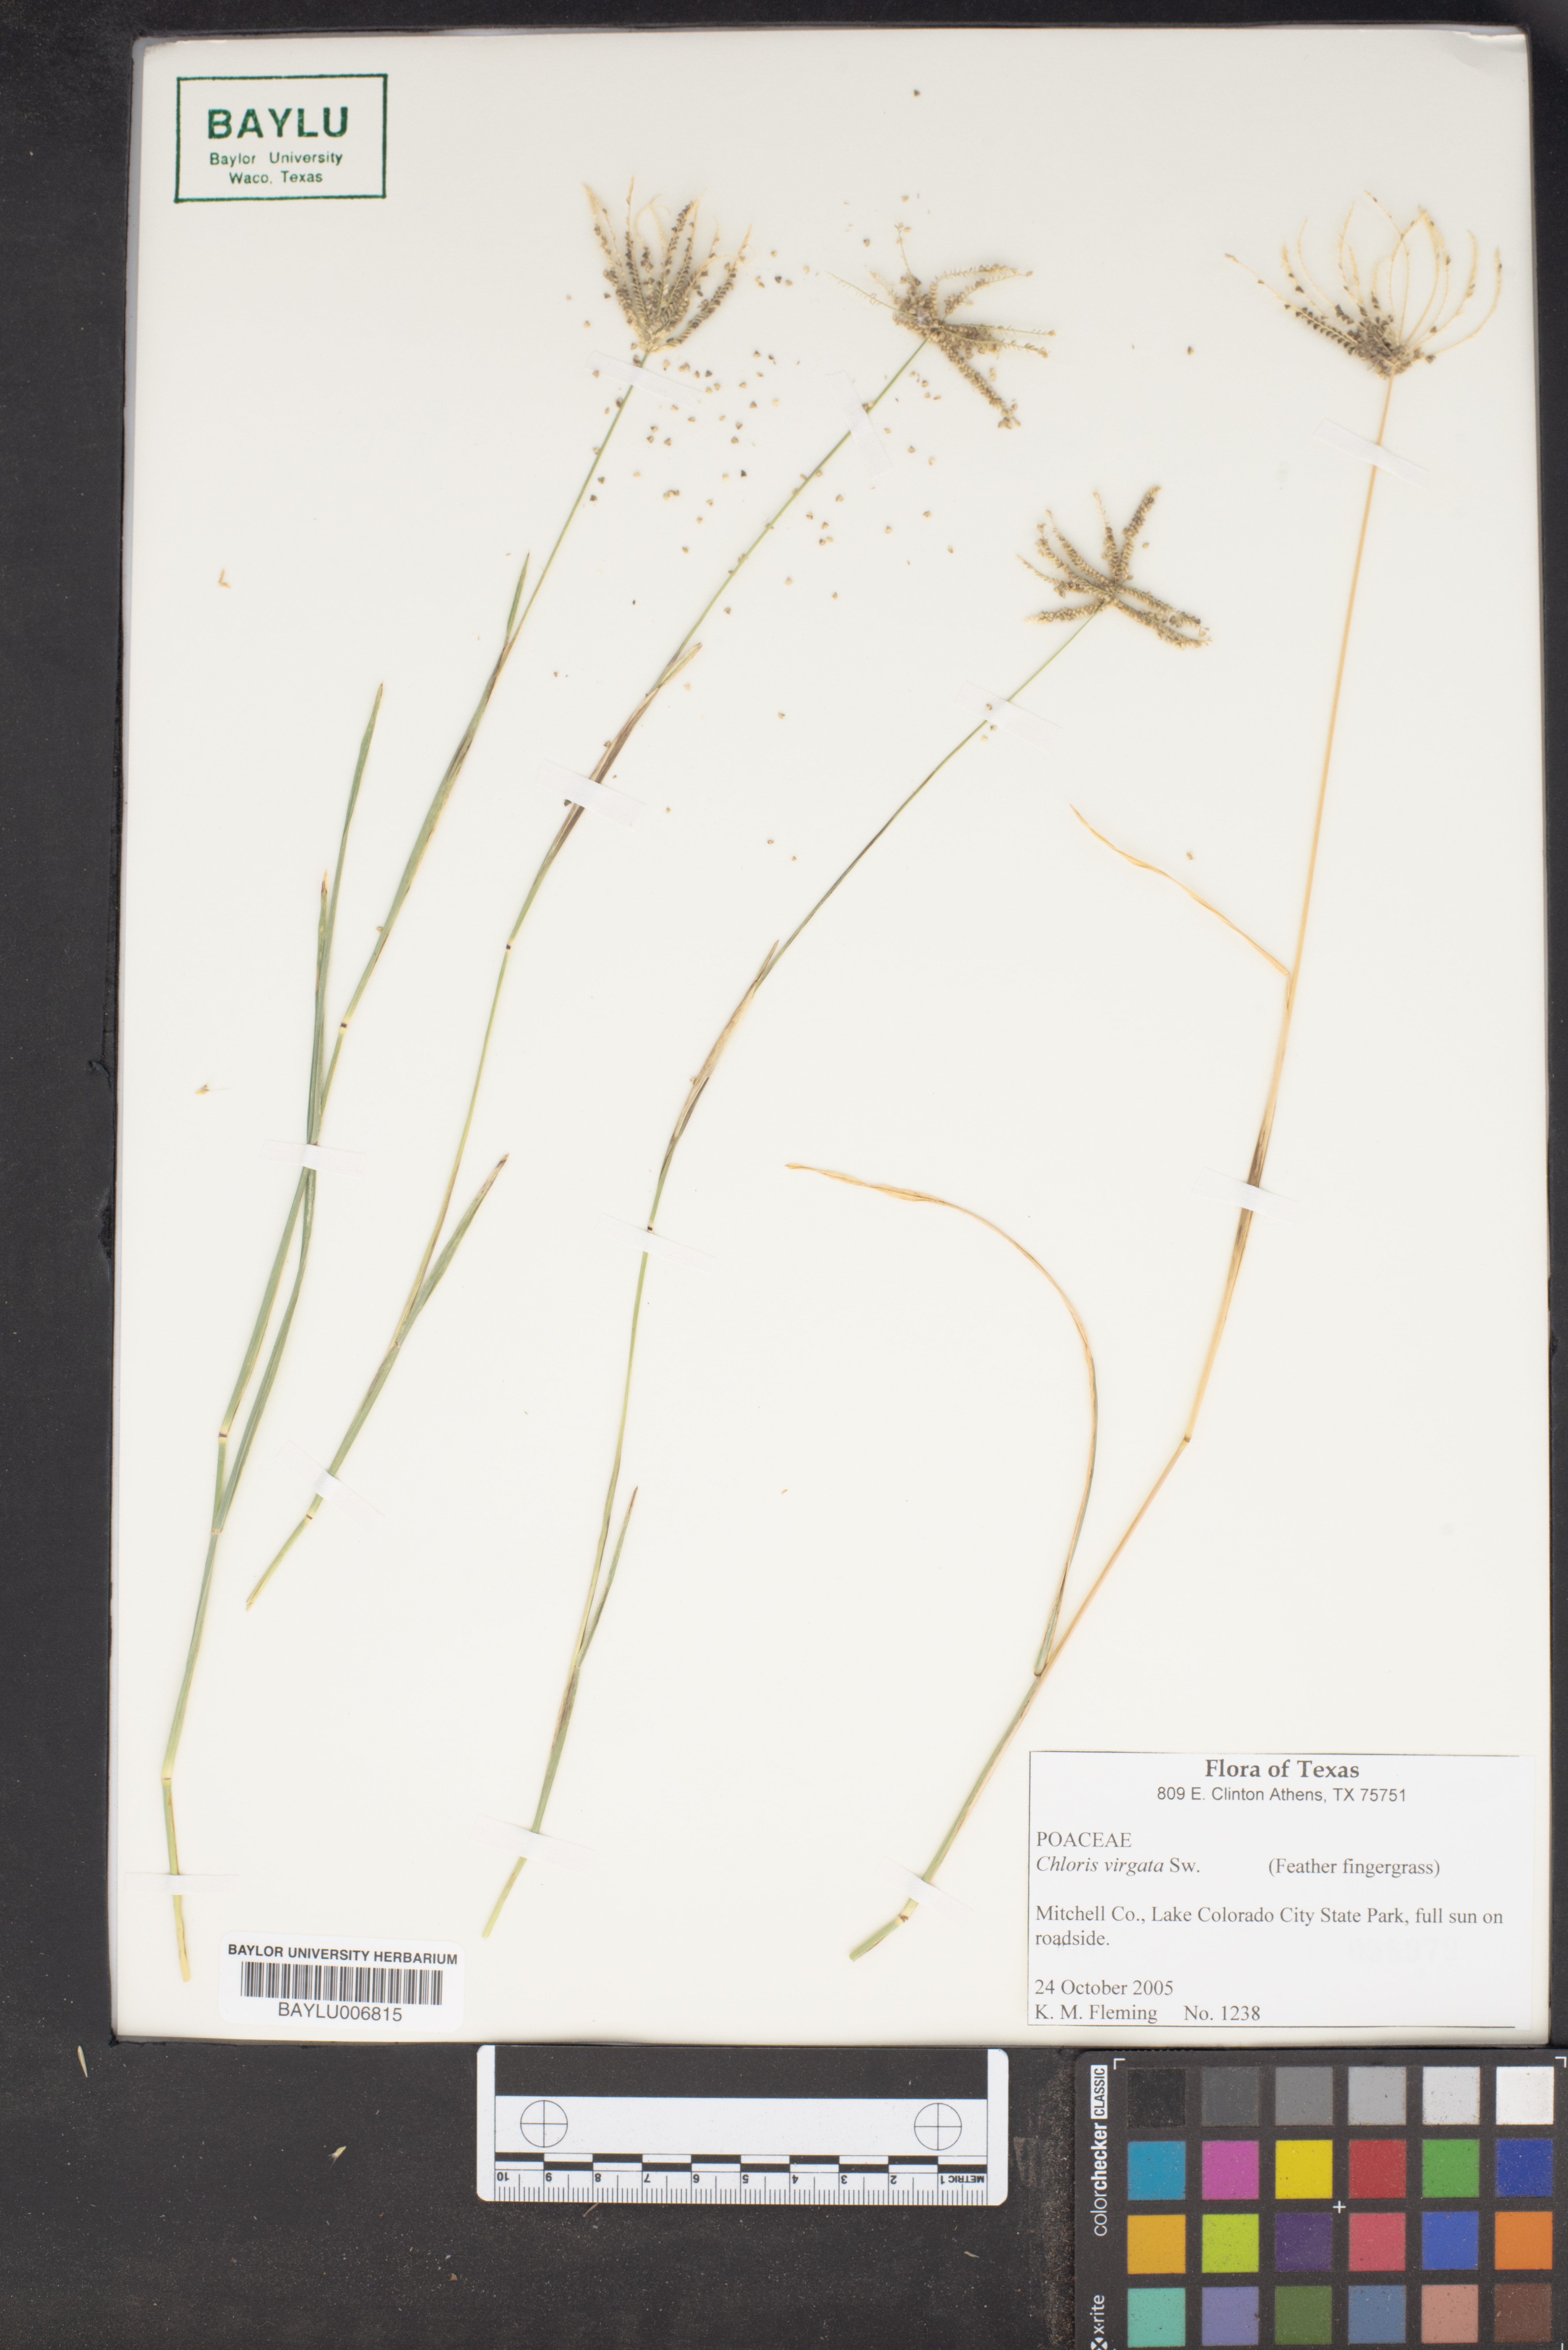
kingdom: Plantae
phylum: Tracheophyta
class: Liliopsida
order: Poales
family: Poaceae
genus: Chloris
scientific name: Chloris virgata
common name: Feathery rhodes-grass
